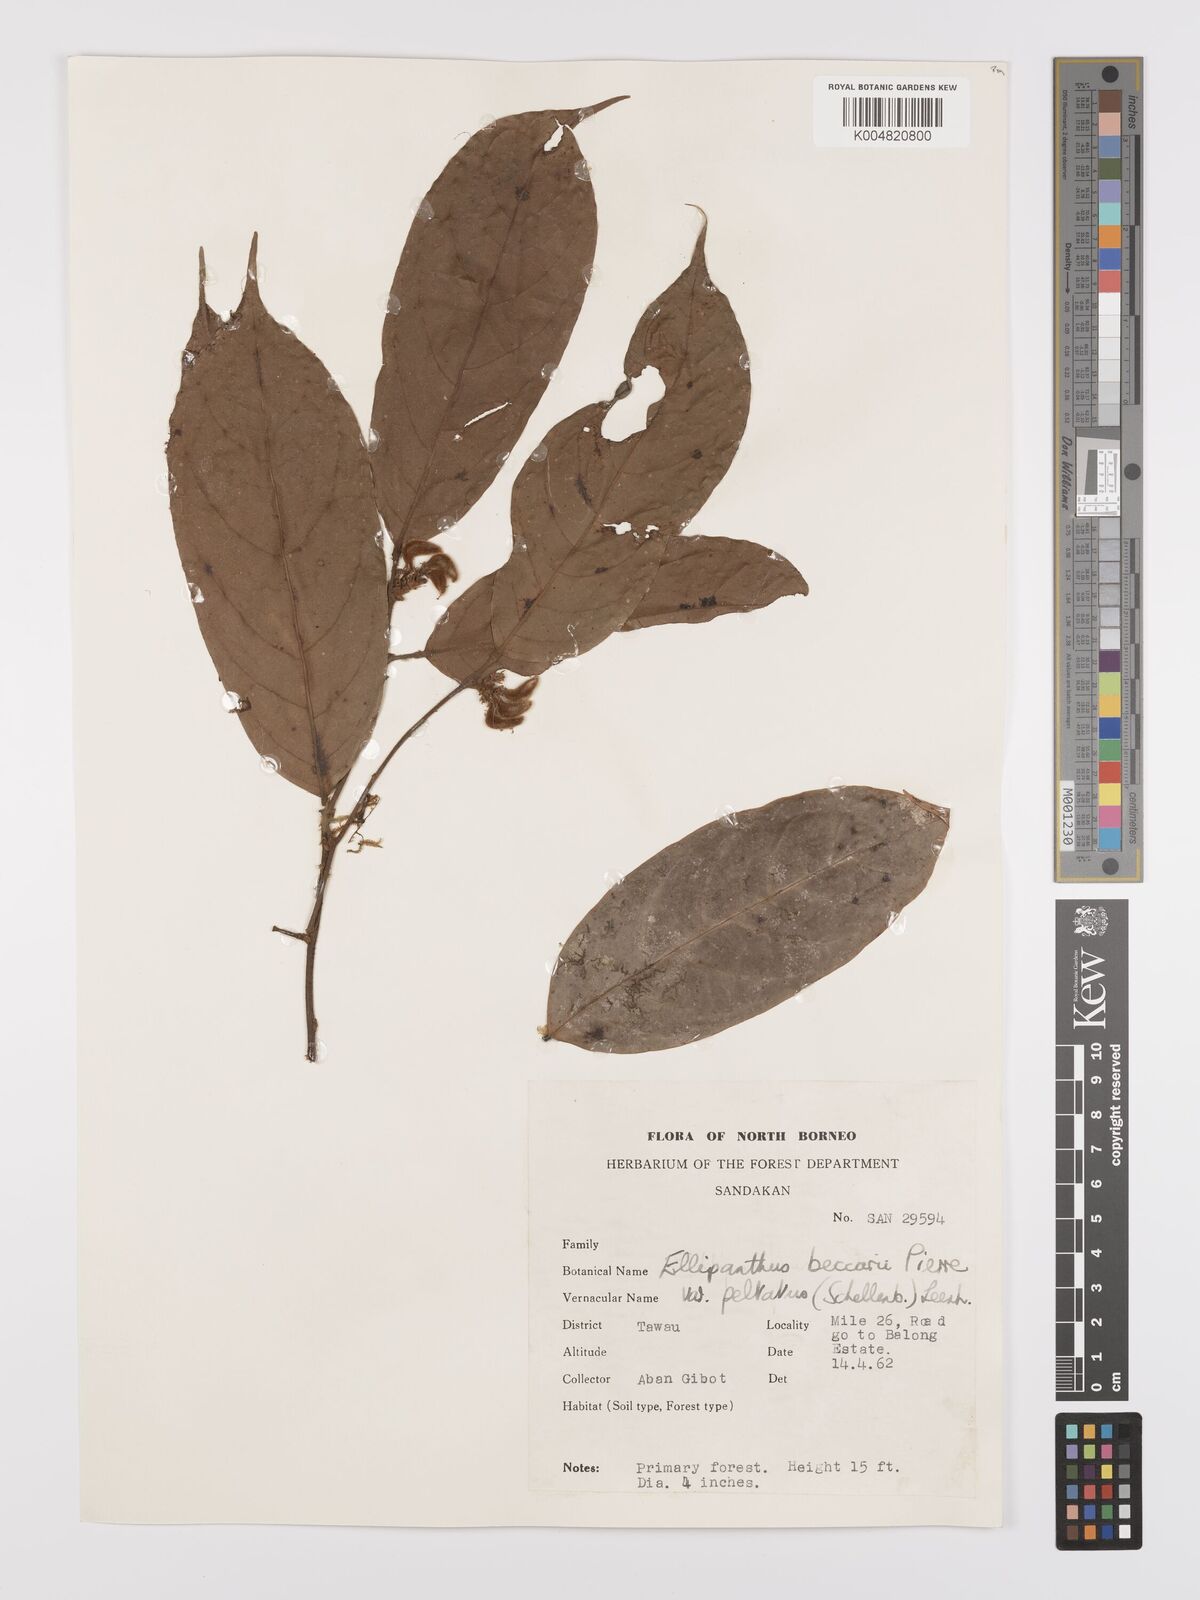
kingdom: Plantae
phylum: Tracheophyta
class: Magnoliopsida
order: Oxalidales
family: Connaraceae
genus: Ellipanthus
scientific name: Ellipanthus beccarii
